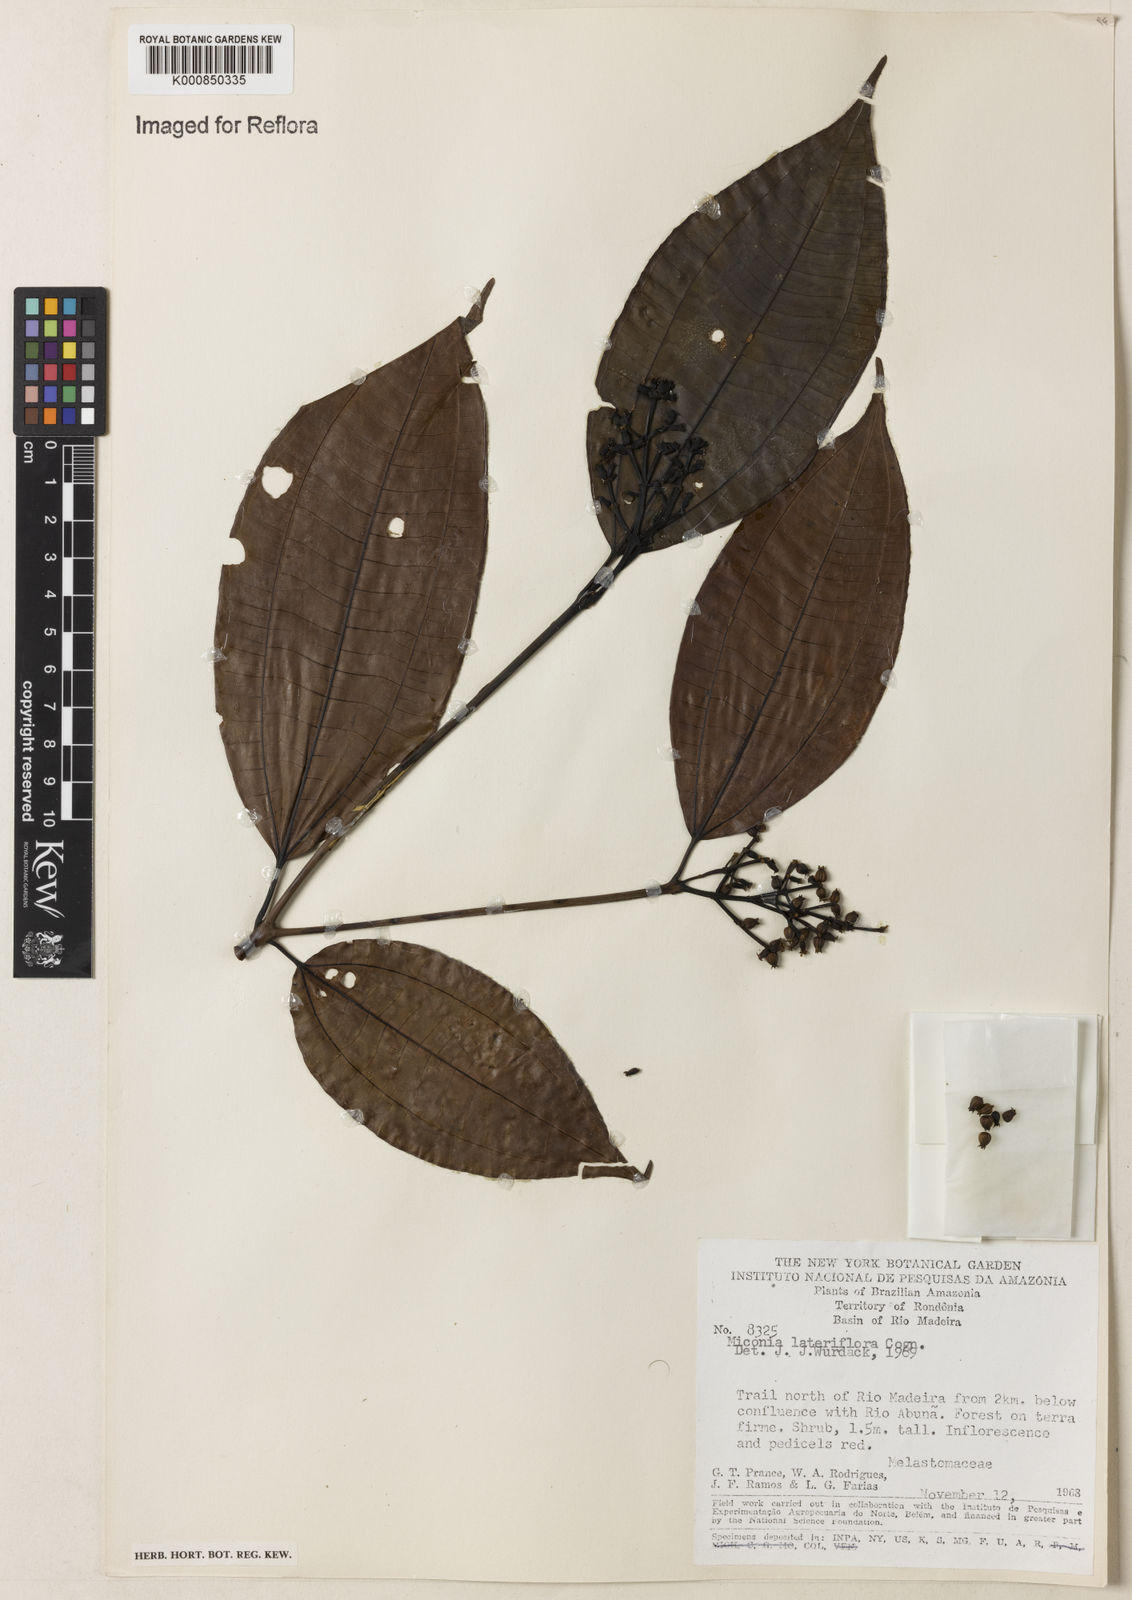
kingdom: Plantae
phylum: Tracheophyta
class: Magnoliopsida
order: Myrtales
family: Melastomataceae
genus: Miconia
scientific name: Miconia lateriflora
